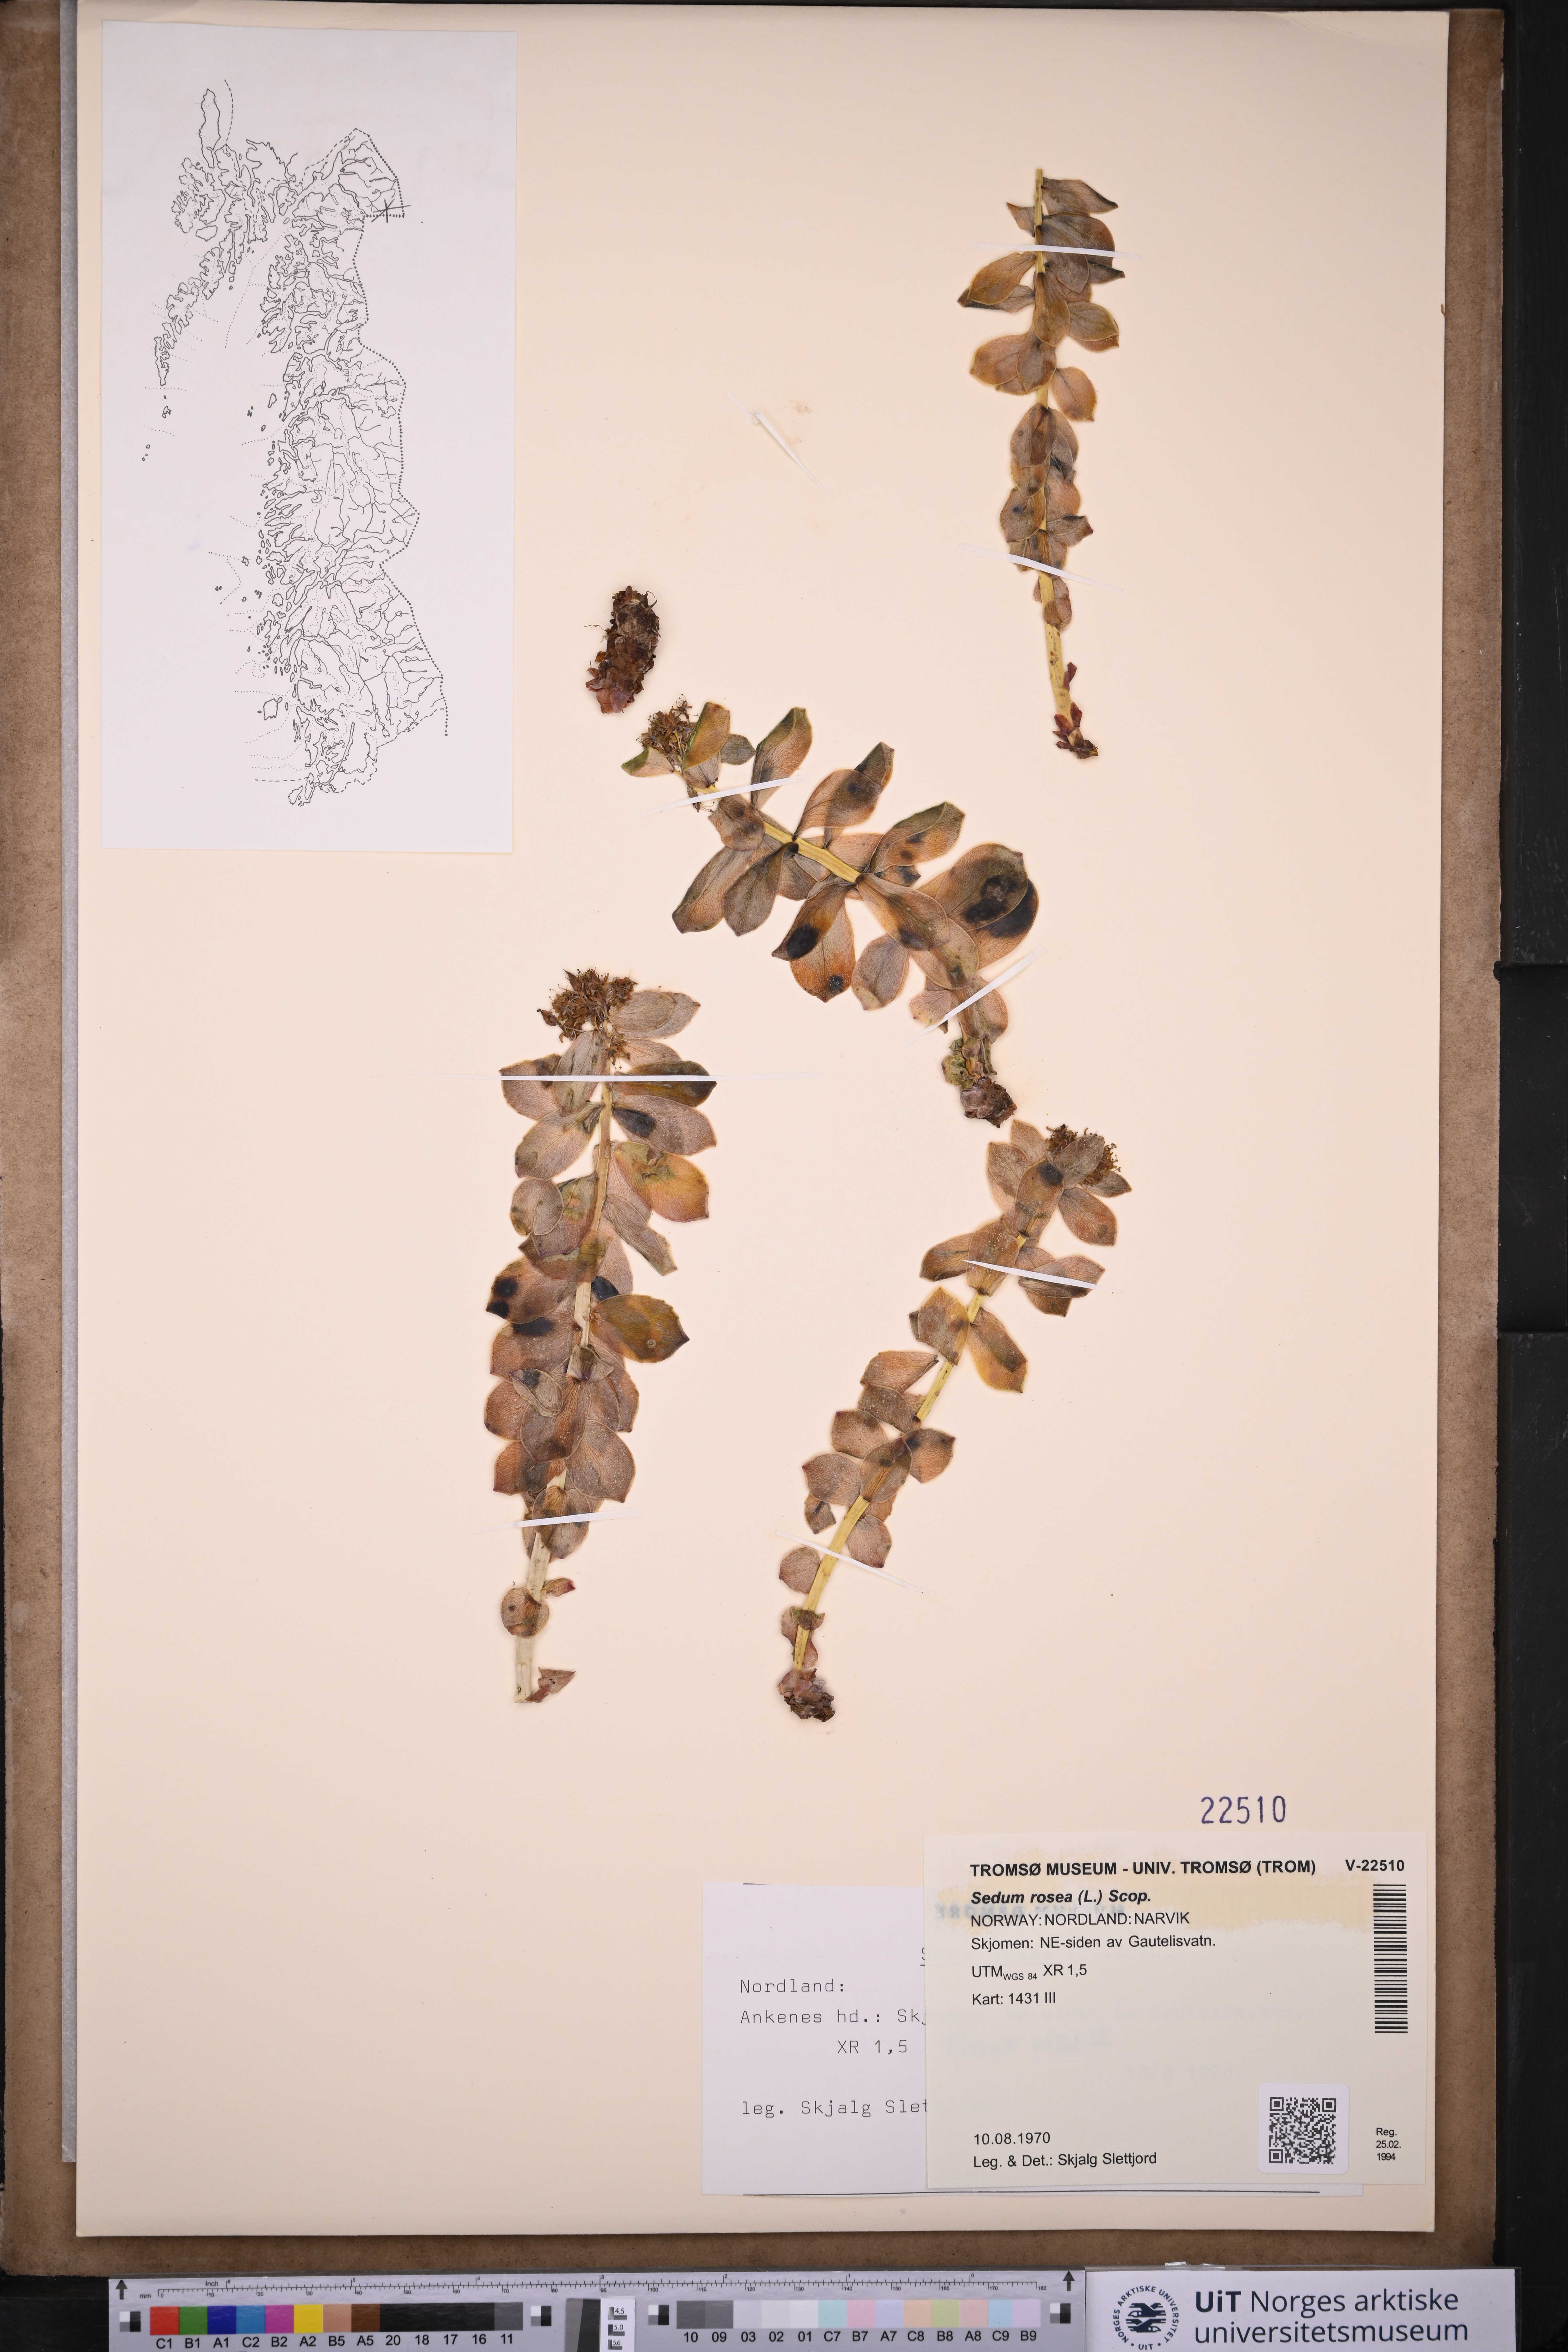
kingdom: Plantae
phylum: Tracheophyta
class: Magnoliopsida
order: Saxifragales
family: Crassulaceae
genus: Rhodiola
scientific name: Rhodiola rosea
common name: Roseroot
